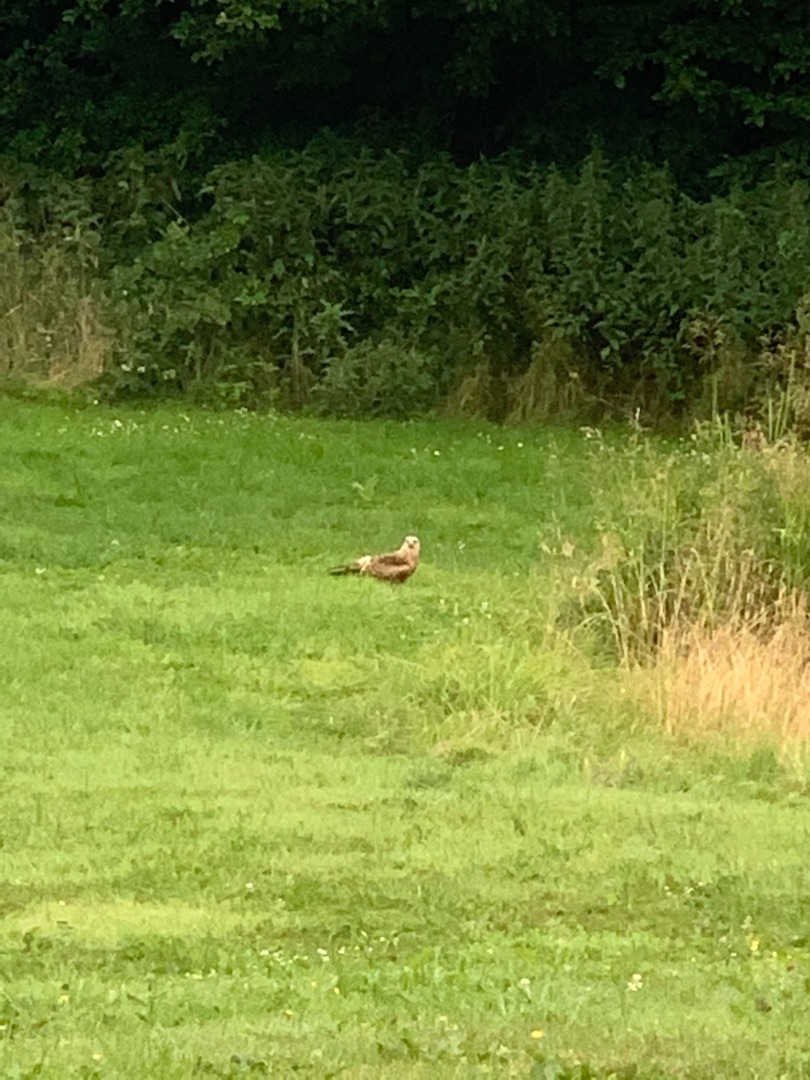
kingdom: Animalia
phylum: Chordata
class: Aves
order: Accipitriformes
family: Accipitridae
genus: Milvus
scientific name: Milvus milvus
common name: Rød glente
